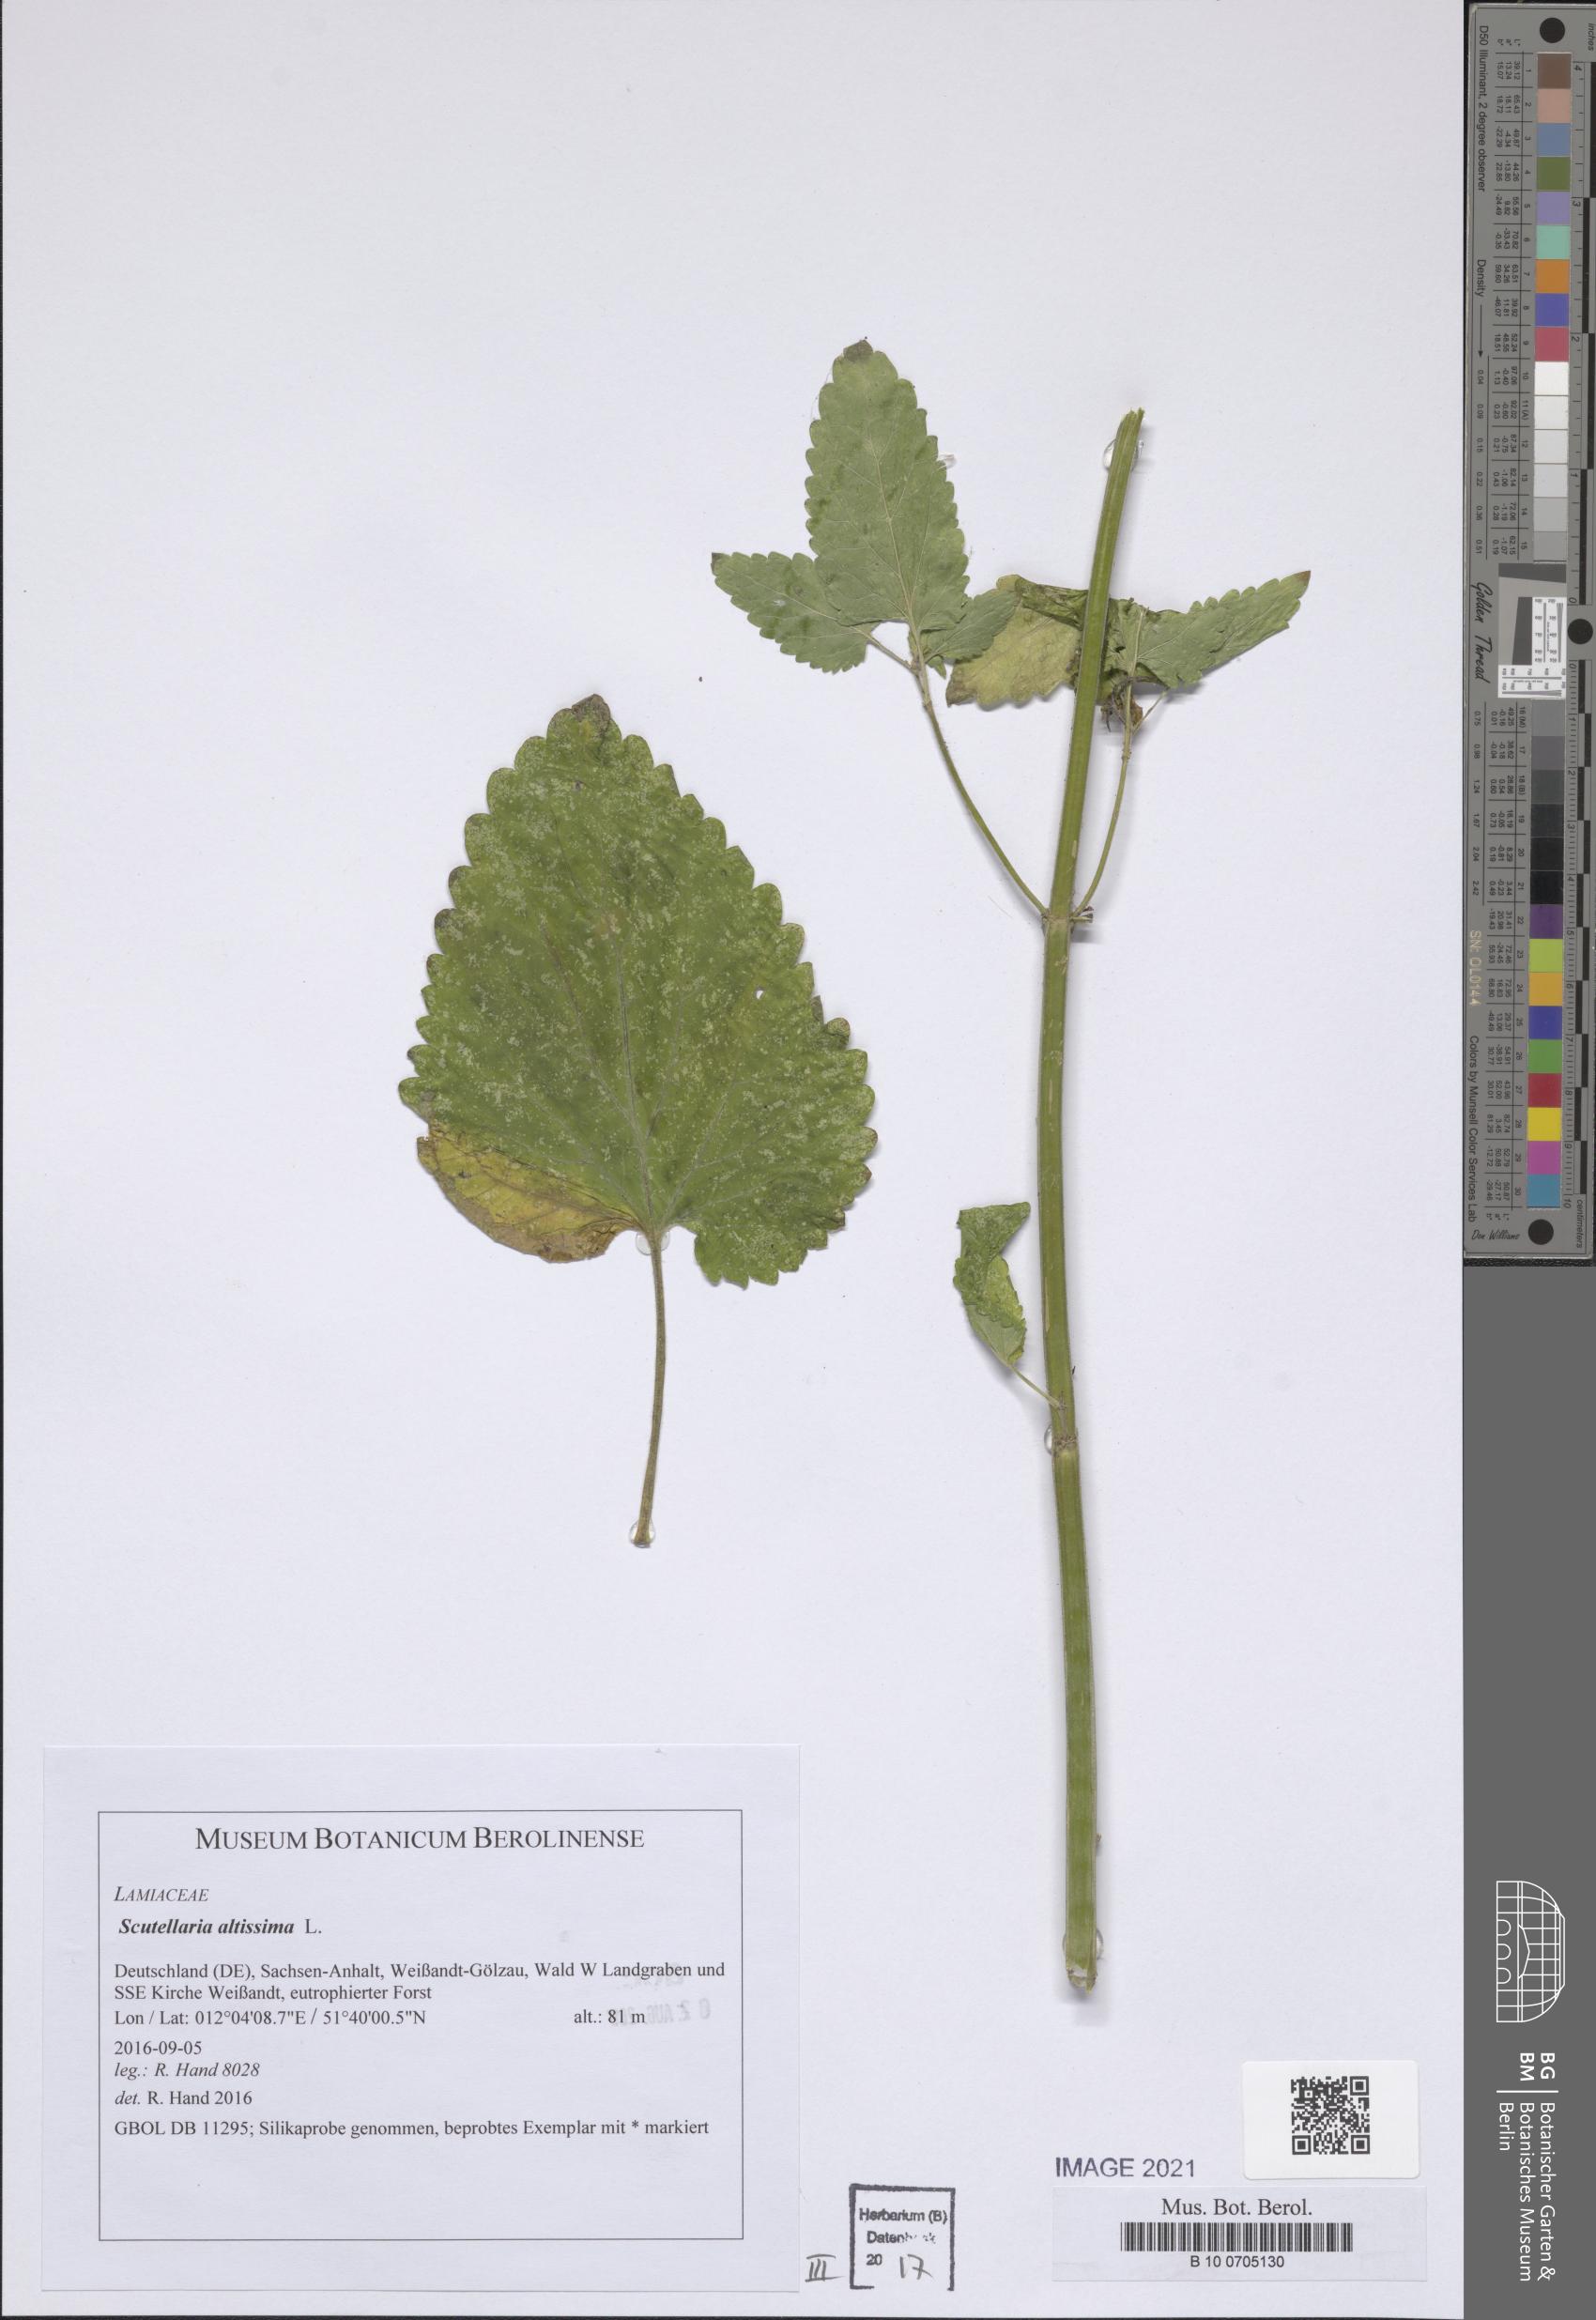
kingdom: Plantae
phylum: Tracheophyta
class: Magnoliopsida
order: Lamiales
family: Lamiaceae
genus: Scutellaria
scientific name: Scutellaria altissima
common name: Somerset skullcap
